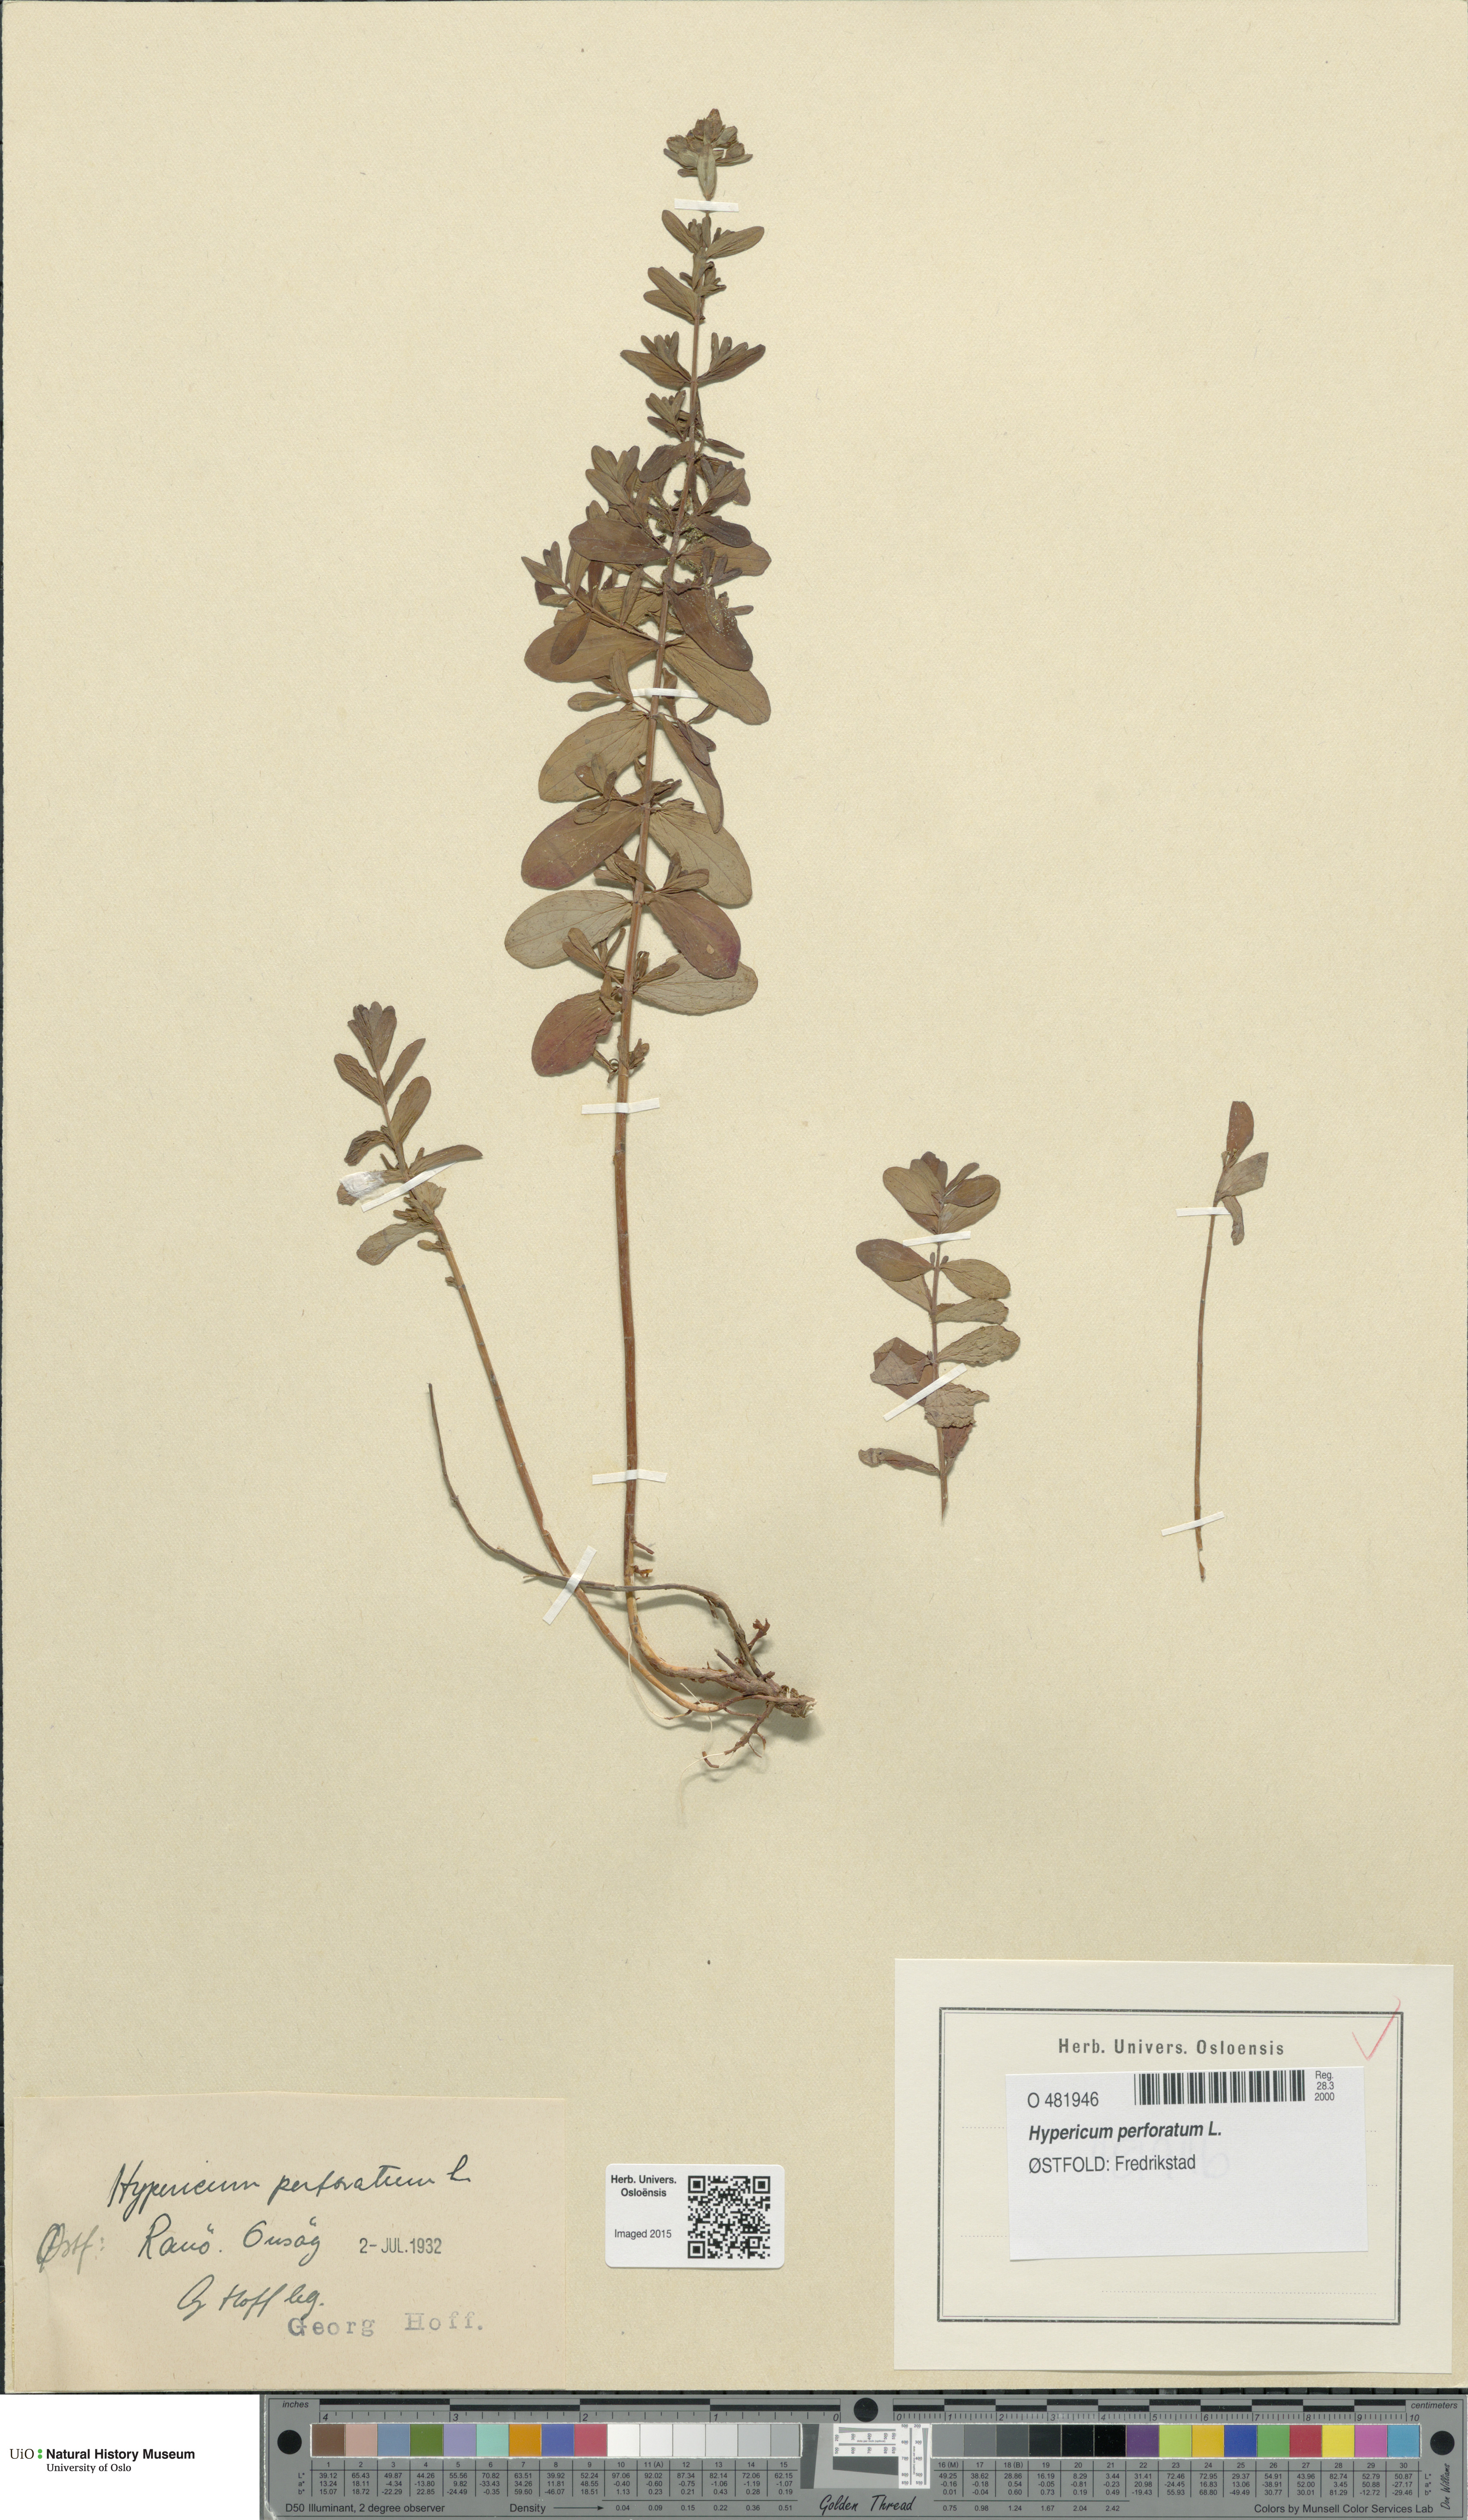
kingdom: Plantae
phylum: Tracheophyta
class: Magnoliopsida
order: Malpighiales
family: Hypericaceae
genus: Hypericum
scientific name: Hypericum perforatum
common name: Common st. johnswort
